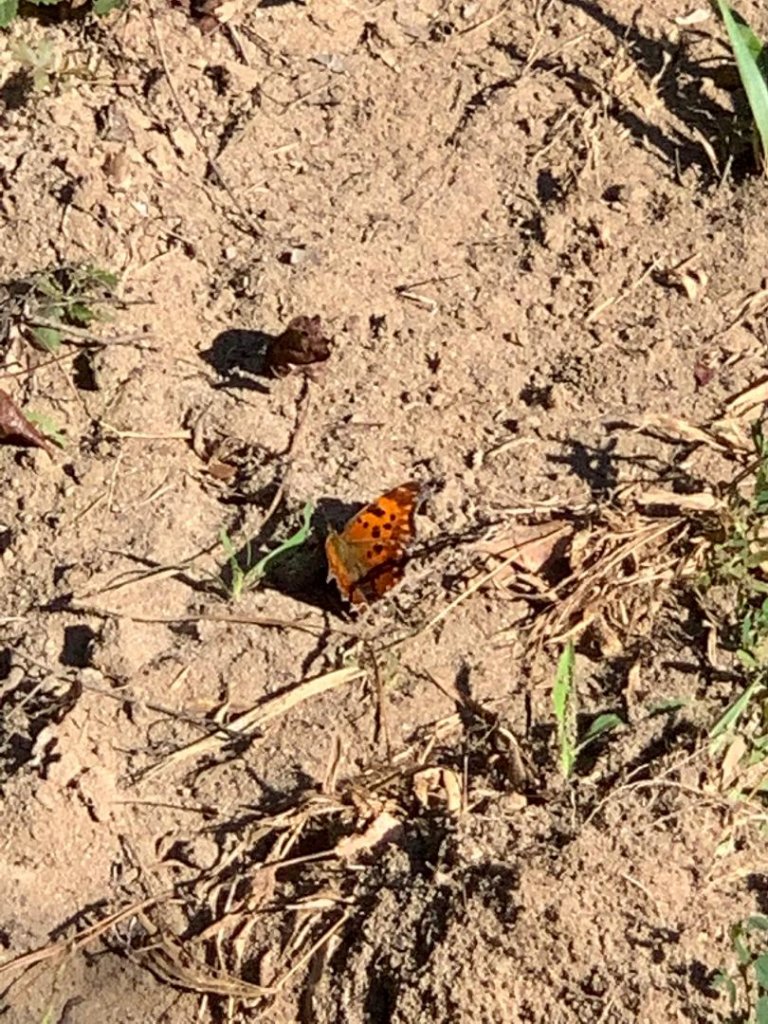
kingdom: Animalia
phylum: Arthropoda
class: Insecta
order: Lepidoptera
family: Nymphalidae
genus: Polygonia
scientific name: Polygonia comma
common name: Eastern Comma
